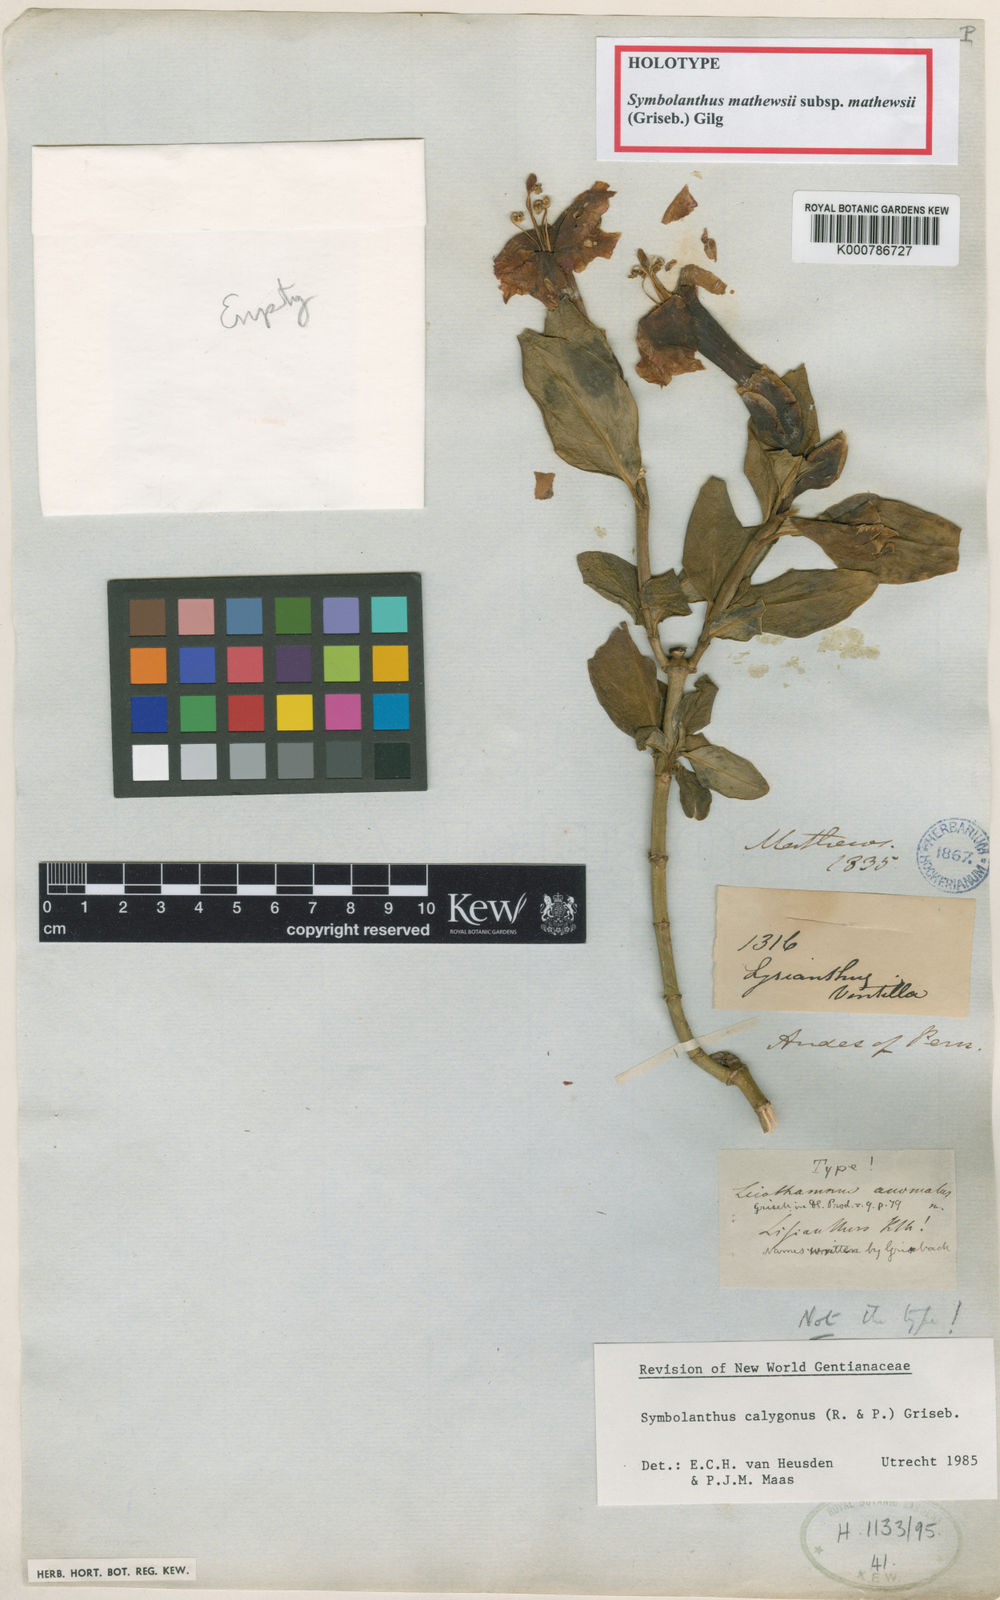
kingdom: Plantae
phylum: Tracheophyta
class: Magnoliopsida
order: Gentianales
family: Gentianaceae
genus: Symbolanthus
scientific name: Symbolanthus
